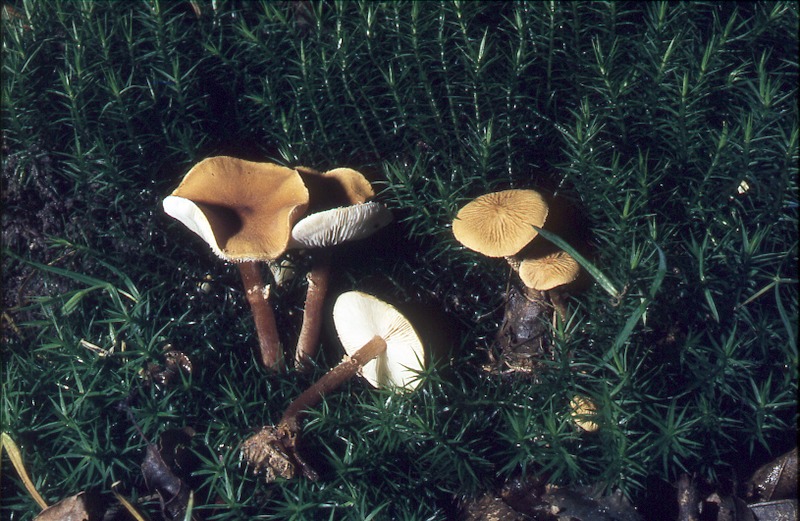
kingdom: Fungi
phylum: Basidiomycota
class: Agaricomycetes
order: Agaricales
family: Tricholomataceae
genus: Cystoderma
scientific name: Cystoderma amianthinum
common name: Earthy powdercap
